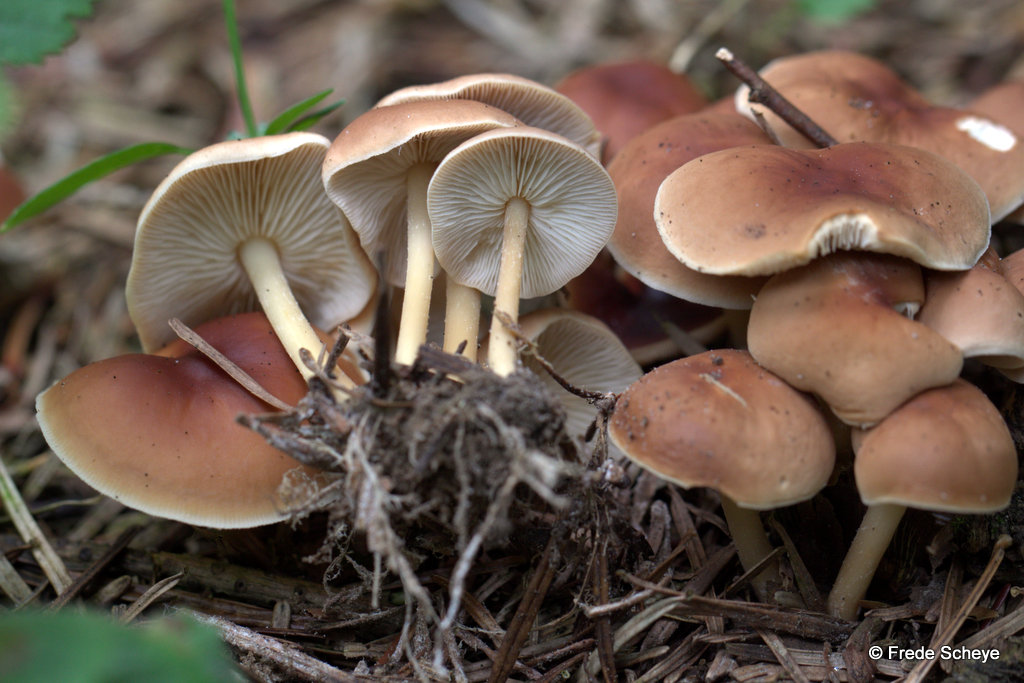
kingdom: Fungi
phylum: Basidiomycota
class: Agaricomycetes
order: Agaricales
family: Omphalotaceae
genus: Gymnopus
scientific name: Gymnopus ocior
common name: mørk fladhat
